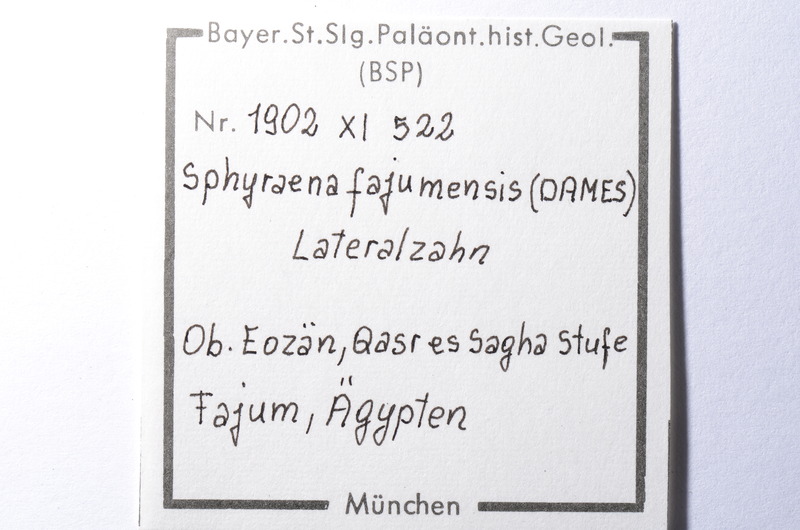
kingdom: Animalia
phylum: Chordata
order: Perciformes
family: Sphyraenidae
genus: Sphyraena
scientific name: Sphyraena Saurocephalus fajumensis
